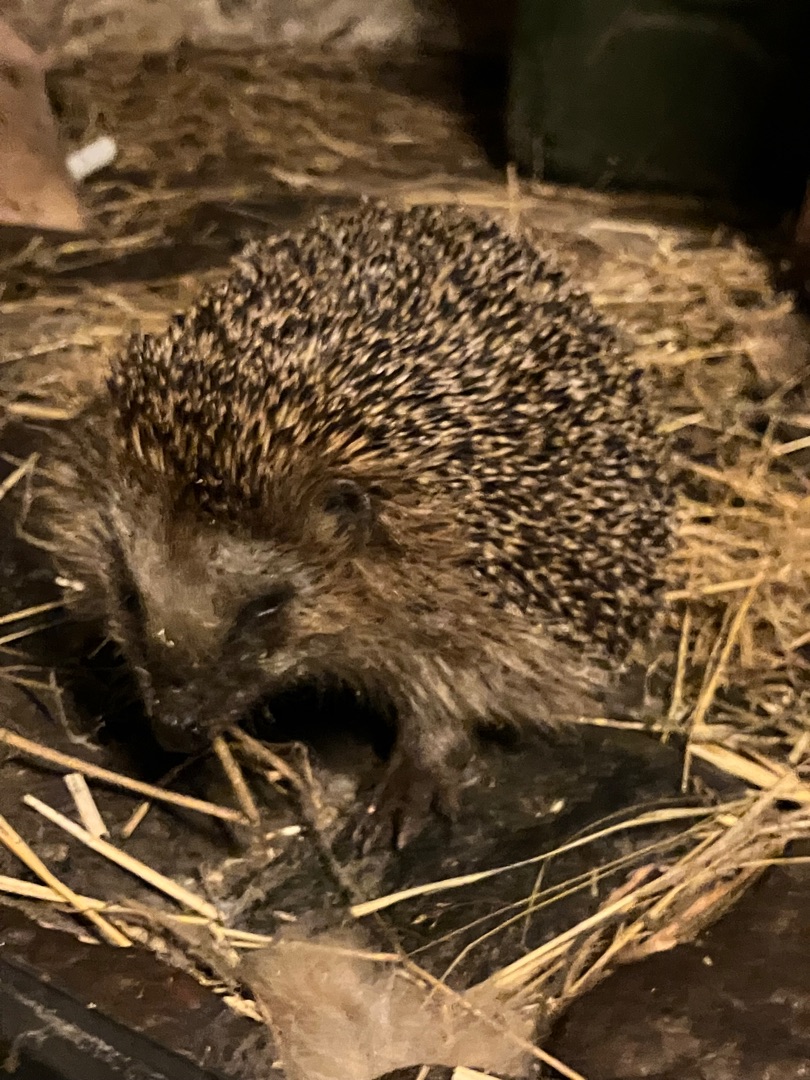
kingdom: Animalia
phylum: Chordata
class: Mammalia
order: Erinaceomorpha
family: Erinaceidae
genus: Erinaceus
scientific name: Erinaceus europaeus
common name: Pindsvin
